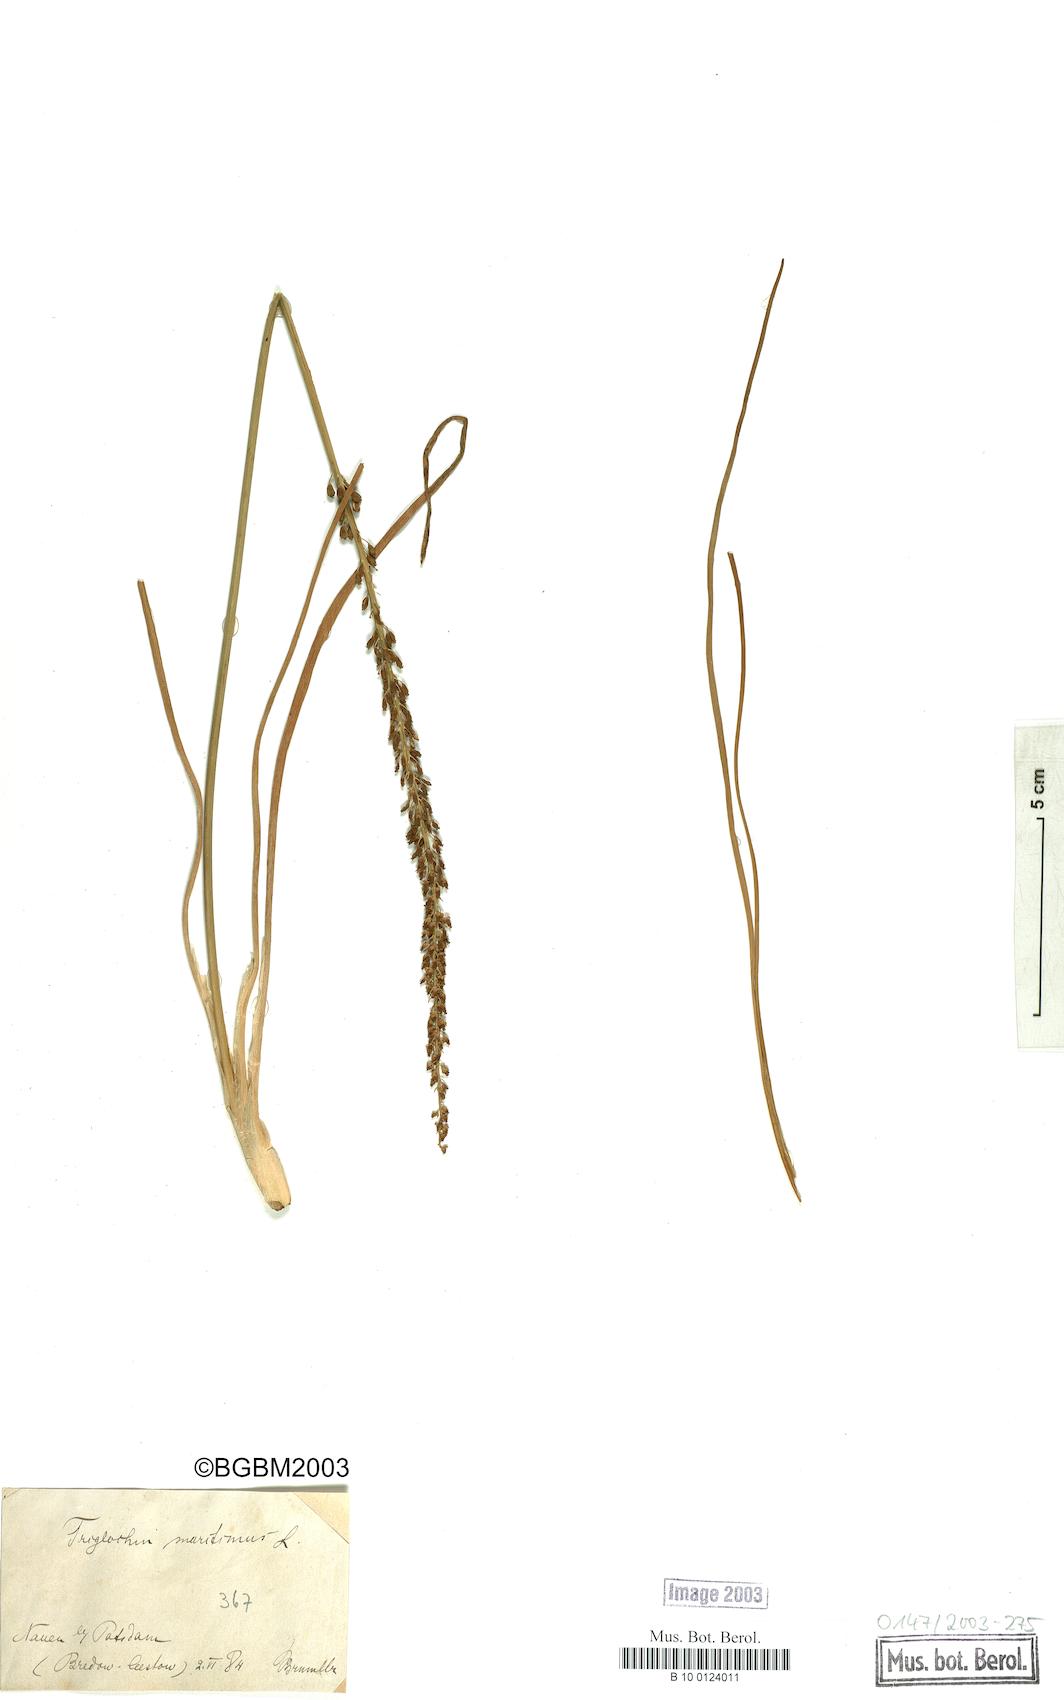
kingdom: Plantae
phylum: Tracheophyta
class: Liliopsida
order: Alismatales
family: Juncaginaceae
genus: Triglochin
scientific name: Triglochin maritima
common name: Sea arrowgrass
